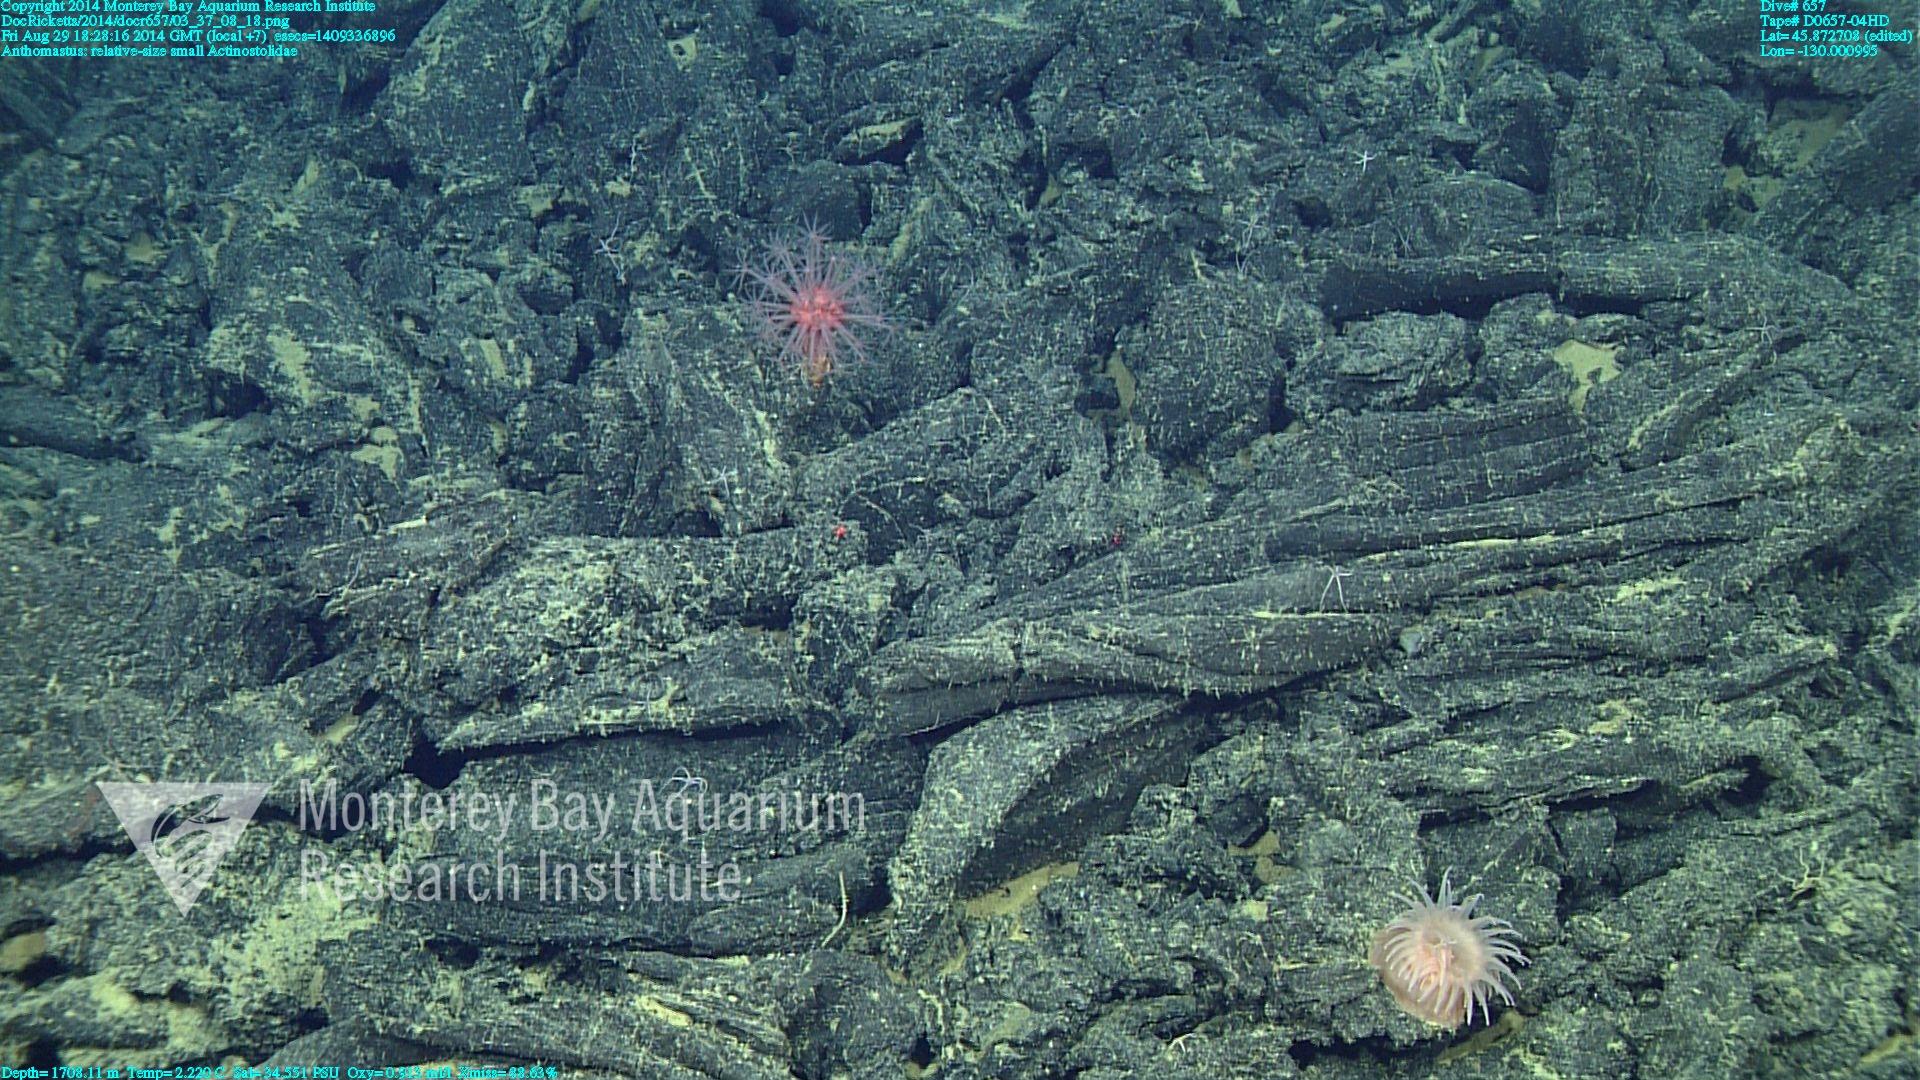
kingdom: Animalia
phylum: Cnidaria
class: Anthozoa
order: Scleralcyonacea
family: Coralliidae
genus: Heteropolypus
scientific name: Heteropolypus
